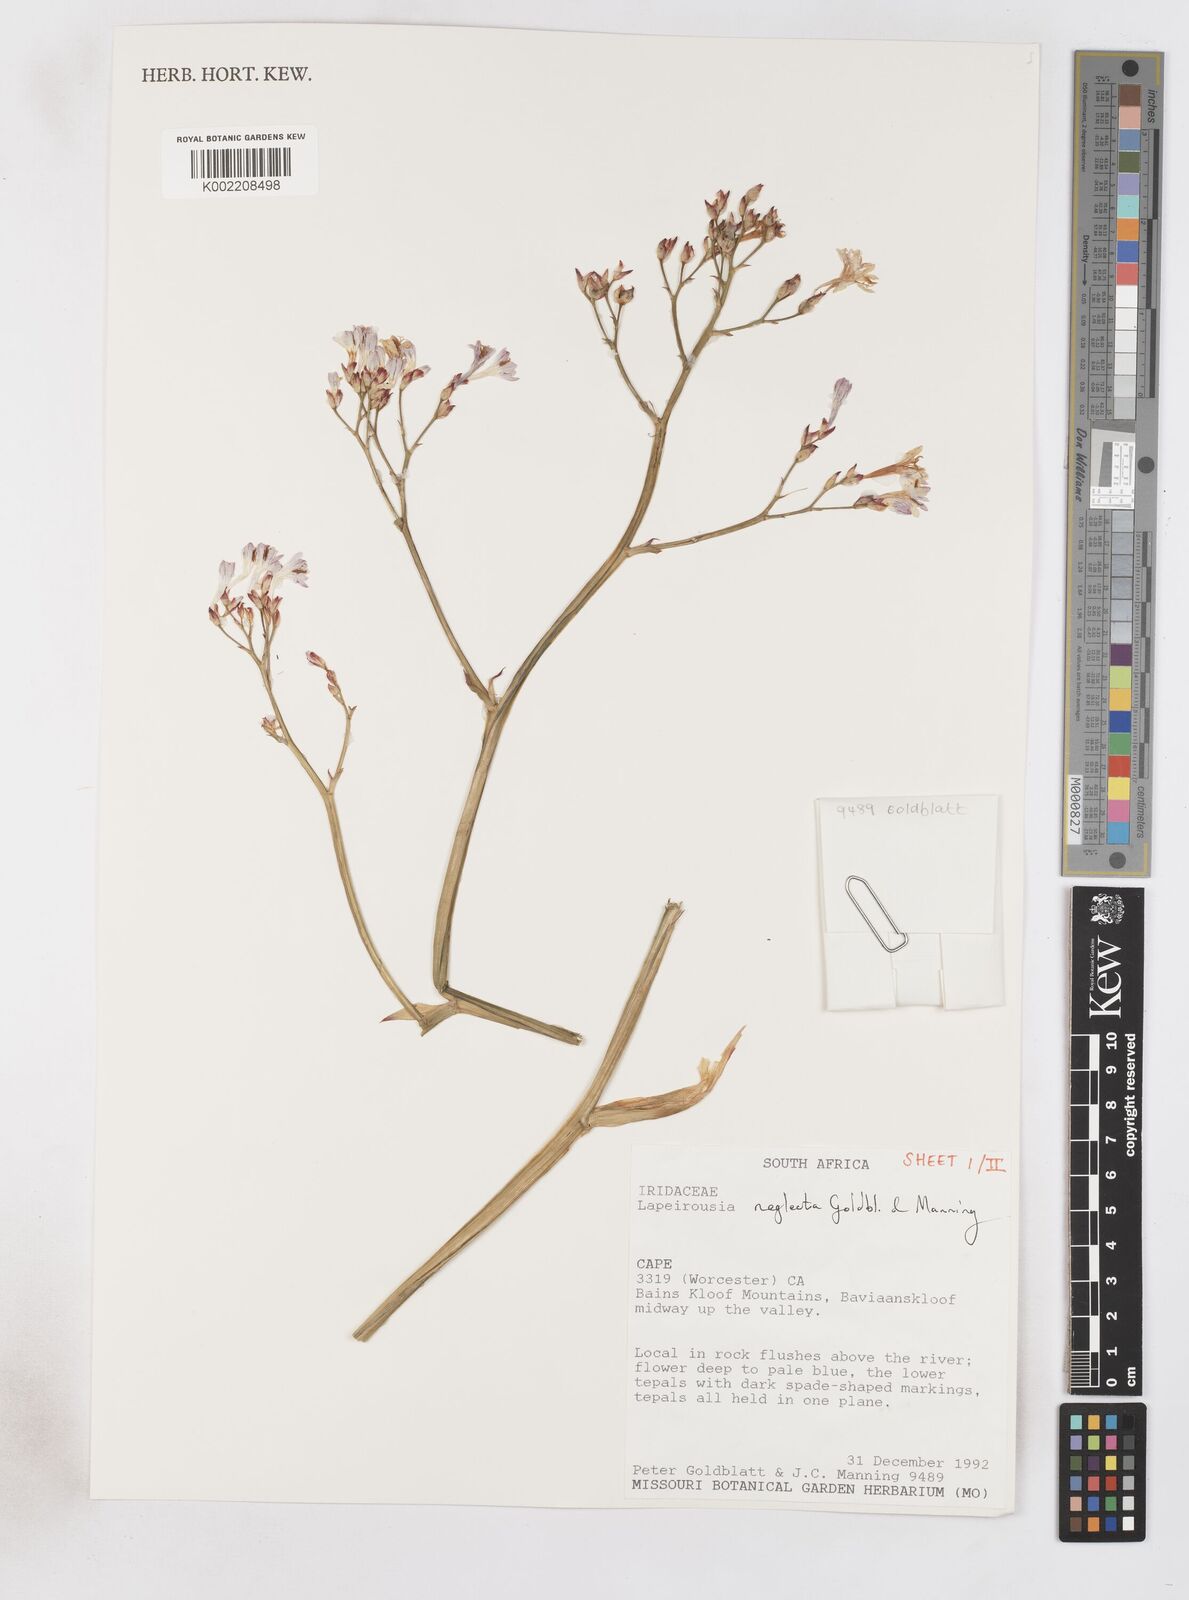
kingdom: Plantae
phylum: Tracheophyta
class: Liliopsida
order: Asparagales
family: Iridaceae
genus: Schizorhiza
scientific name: Schizorhiza neglecta
